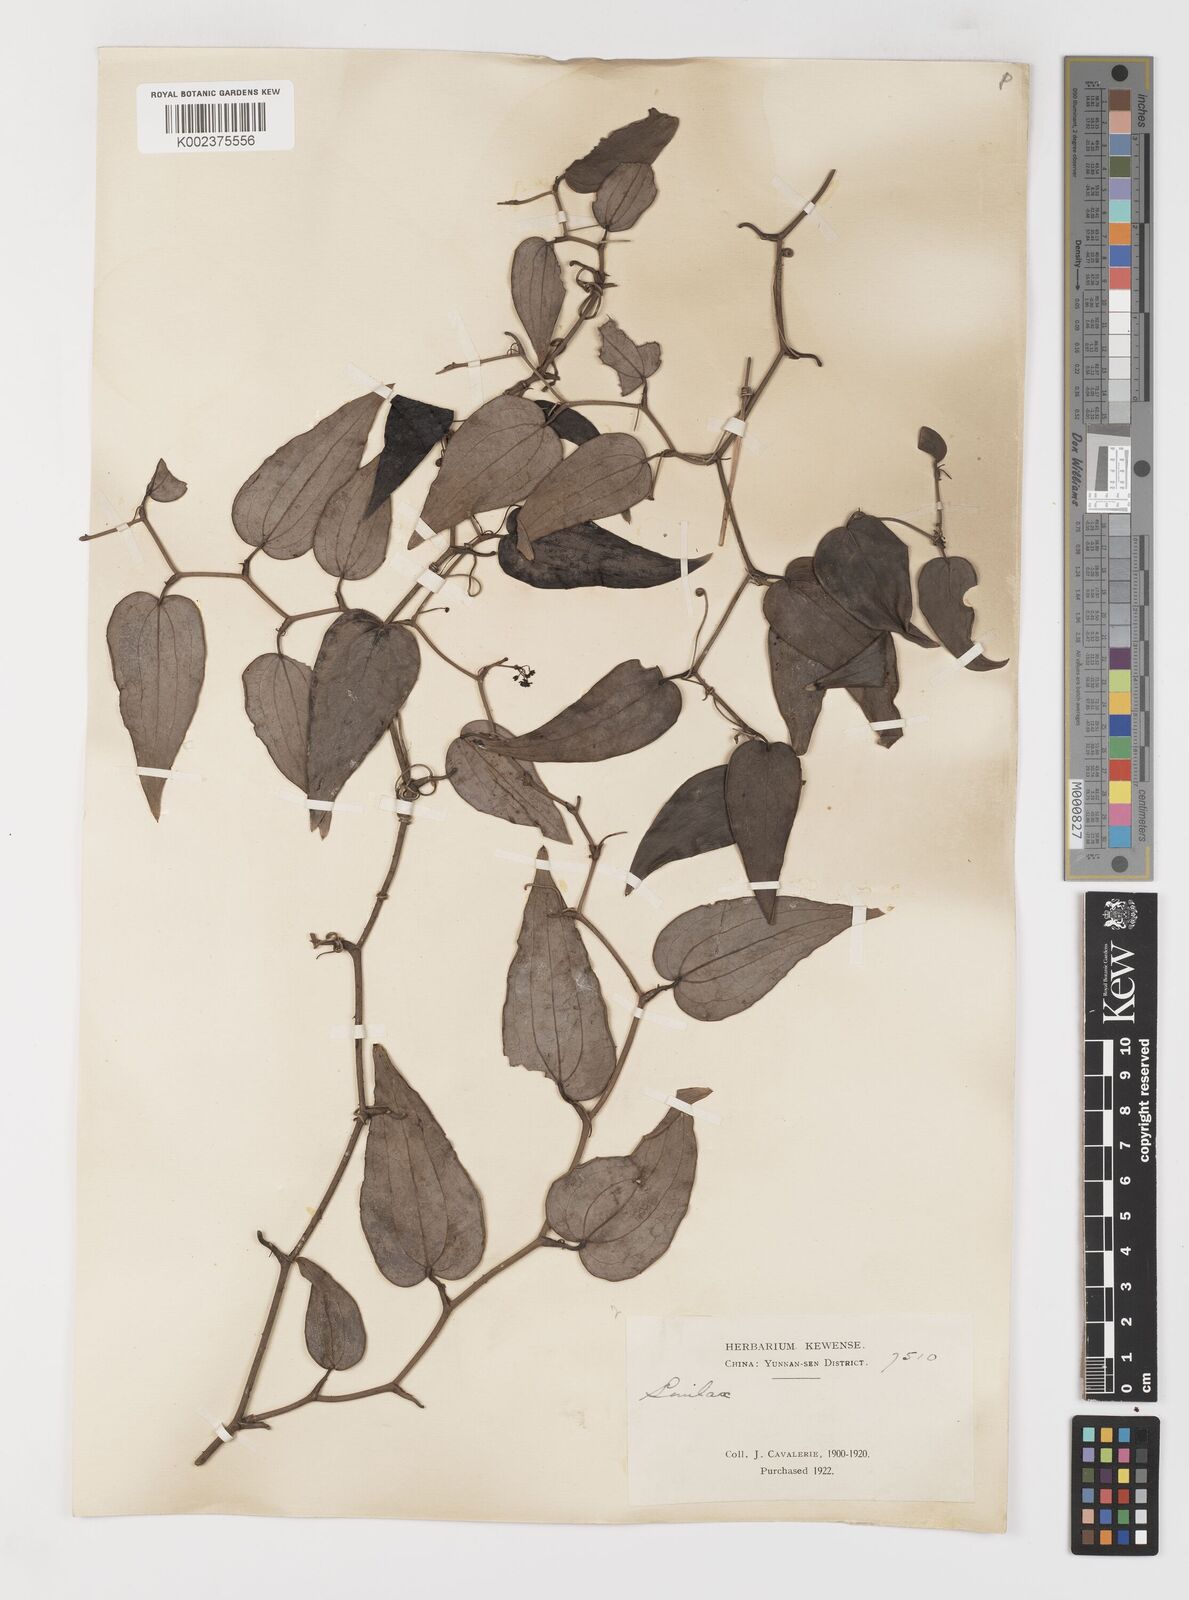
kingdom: Plantae
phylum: Tracheophyta
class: Liliopsida
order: Liliales
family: Smilacaceae
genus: Smilax
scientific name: Smilax lanceifolia
